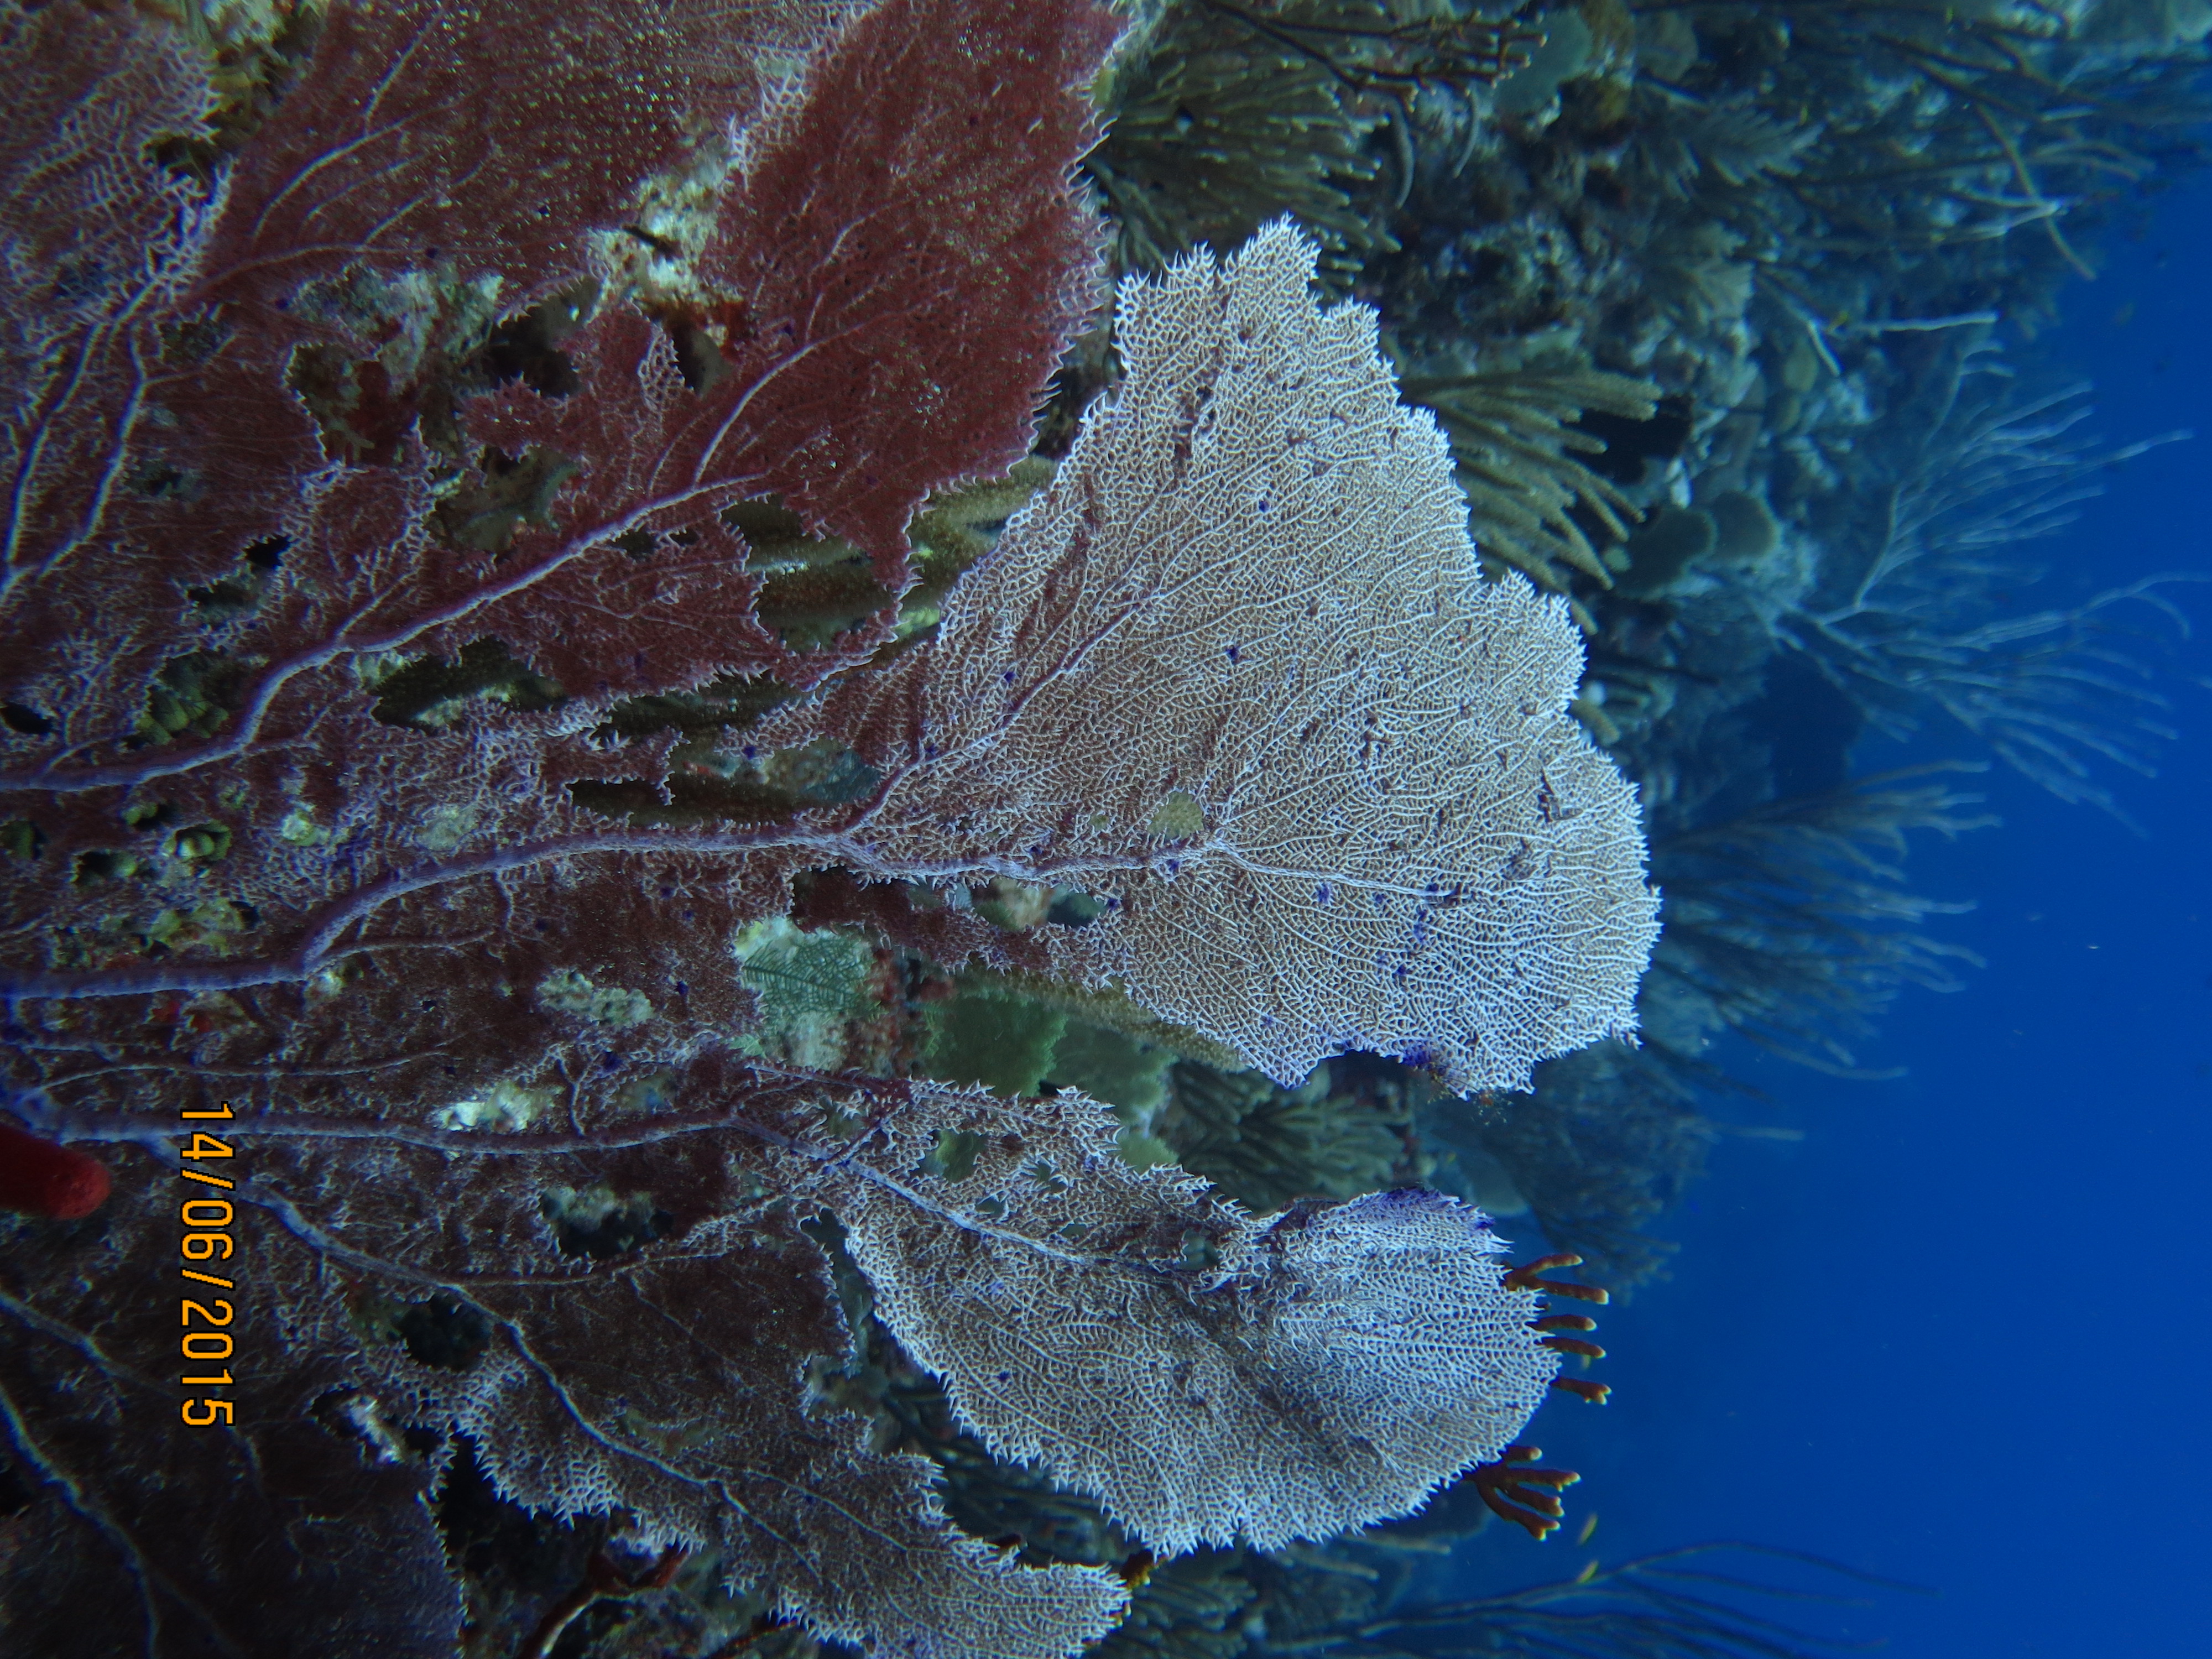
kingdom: Animalia
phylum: Cnidaria
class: Anthozoa
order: Malacalcyonacea
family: Gorgoniidae
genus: Gorgonia
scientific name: Gorgonia
